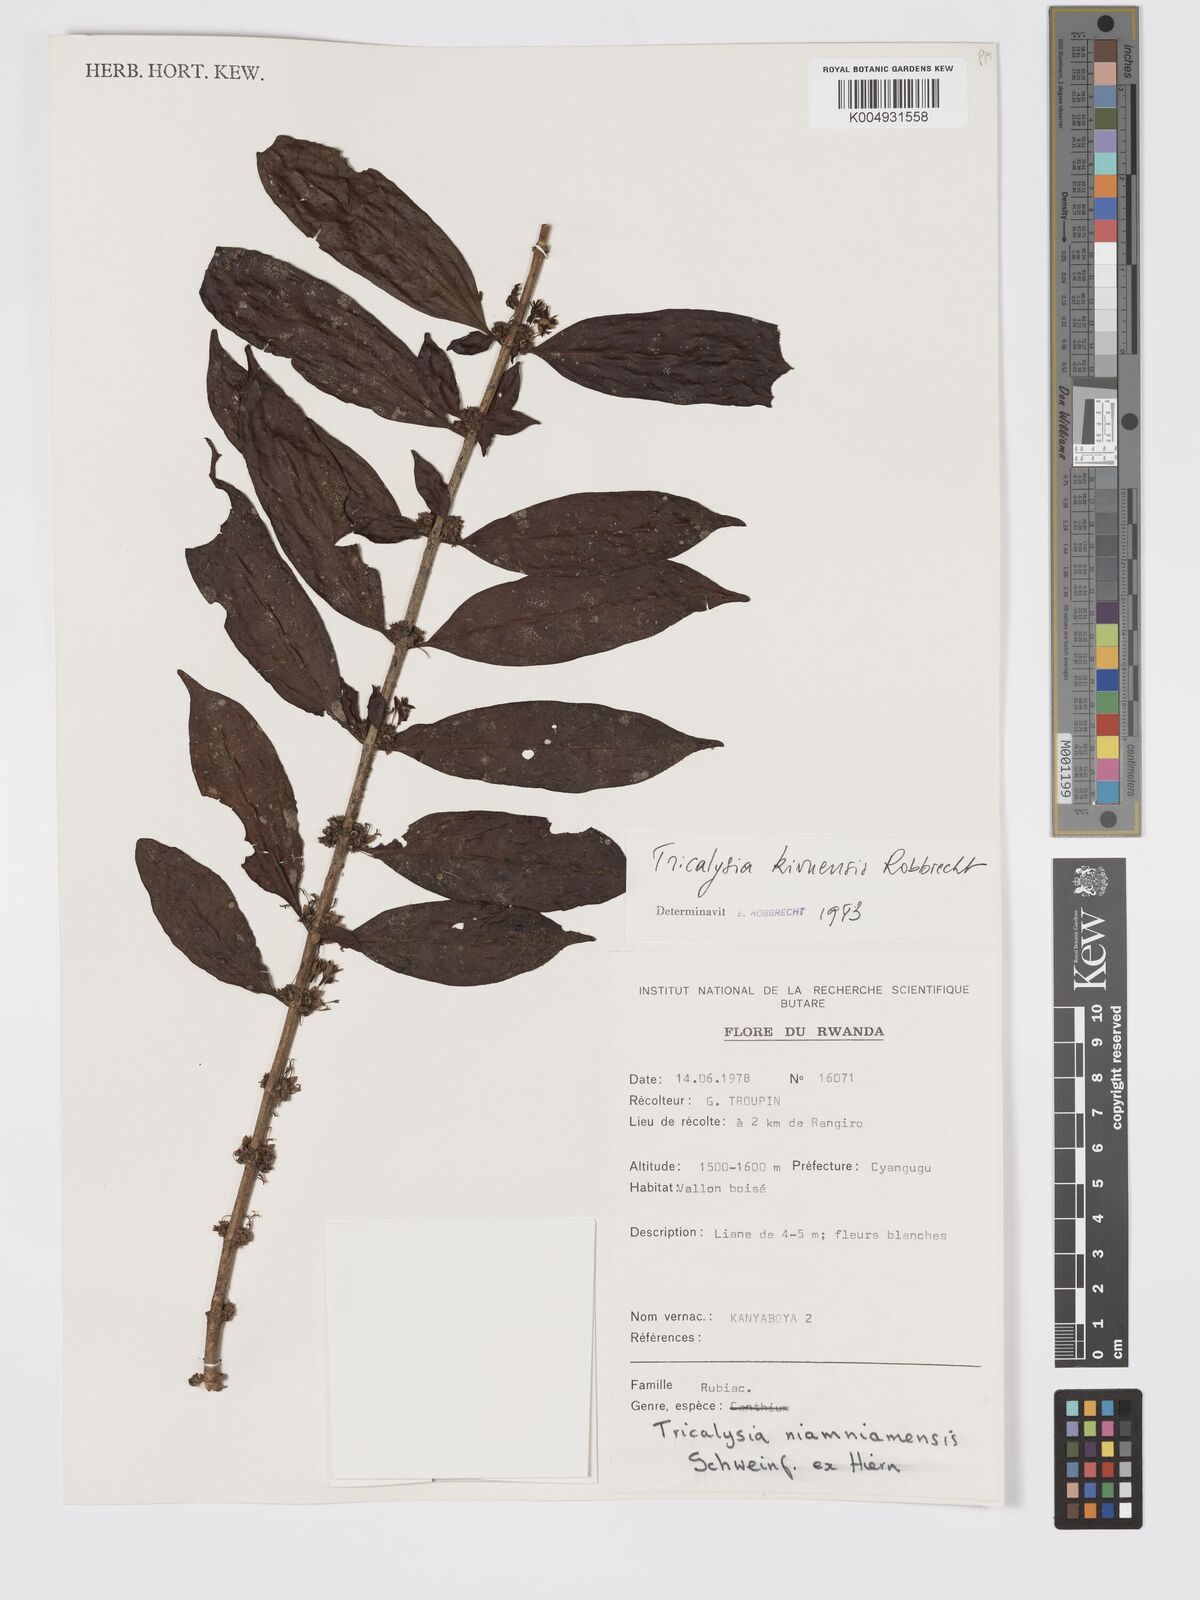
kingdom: Plantae
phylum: Tracheophyta
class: Magnoliopsida
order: Gentianales
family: Rubiaceae
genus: Tricalysia
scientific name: Tricalysia kivuensis
